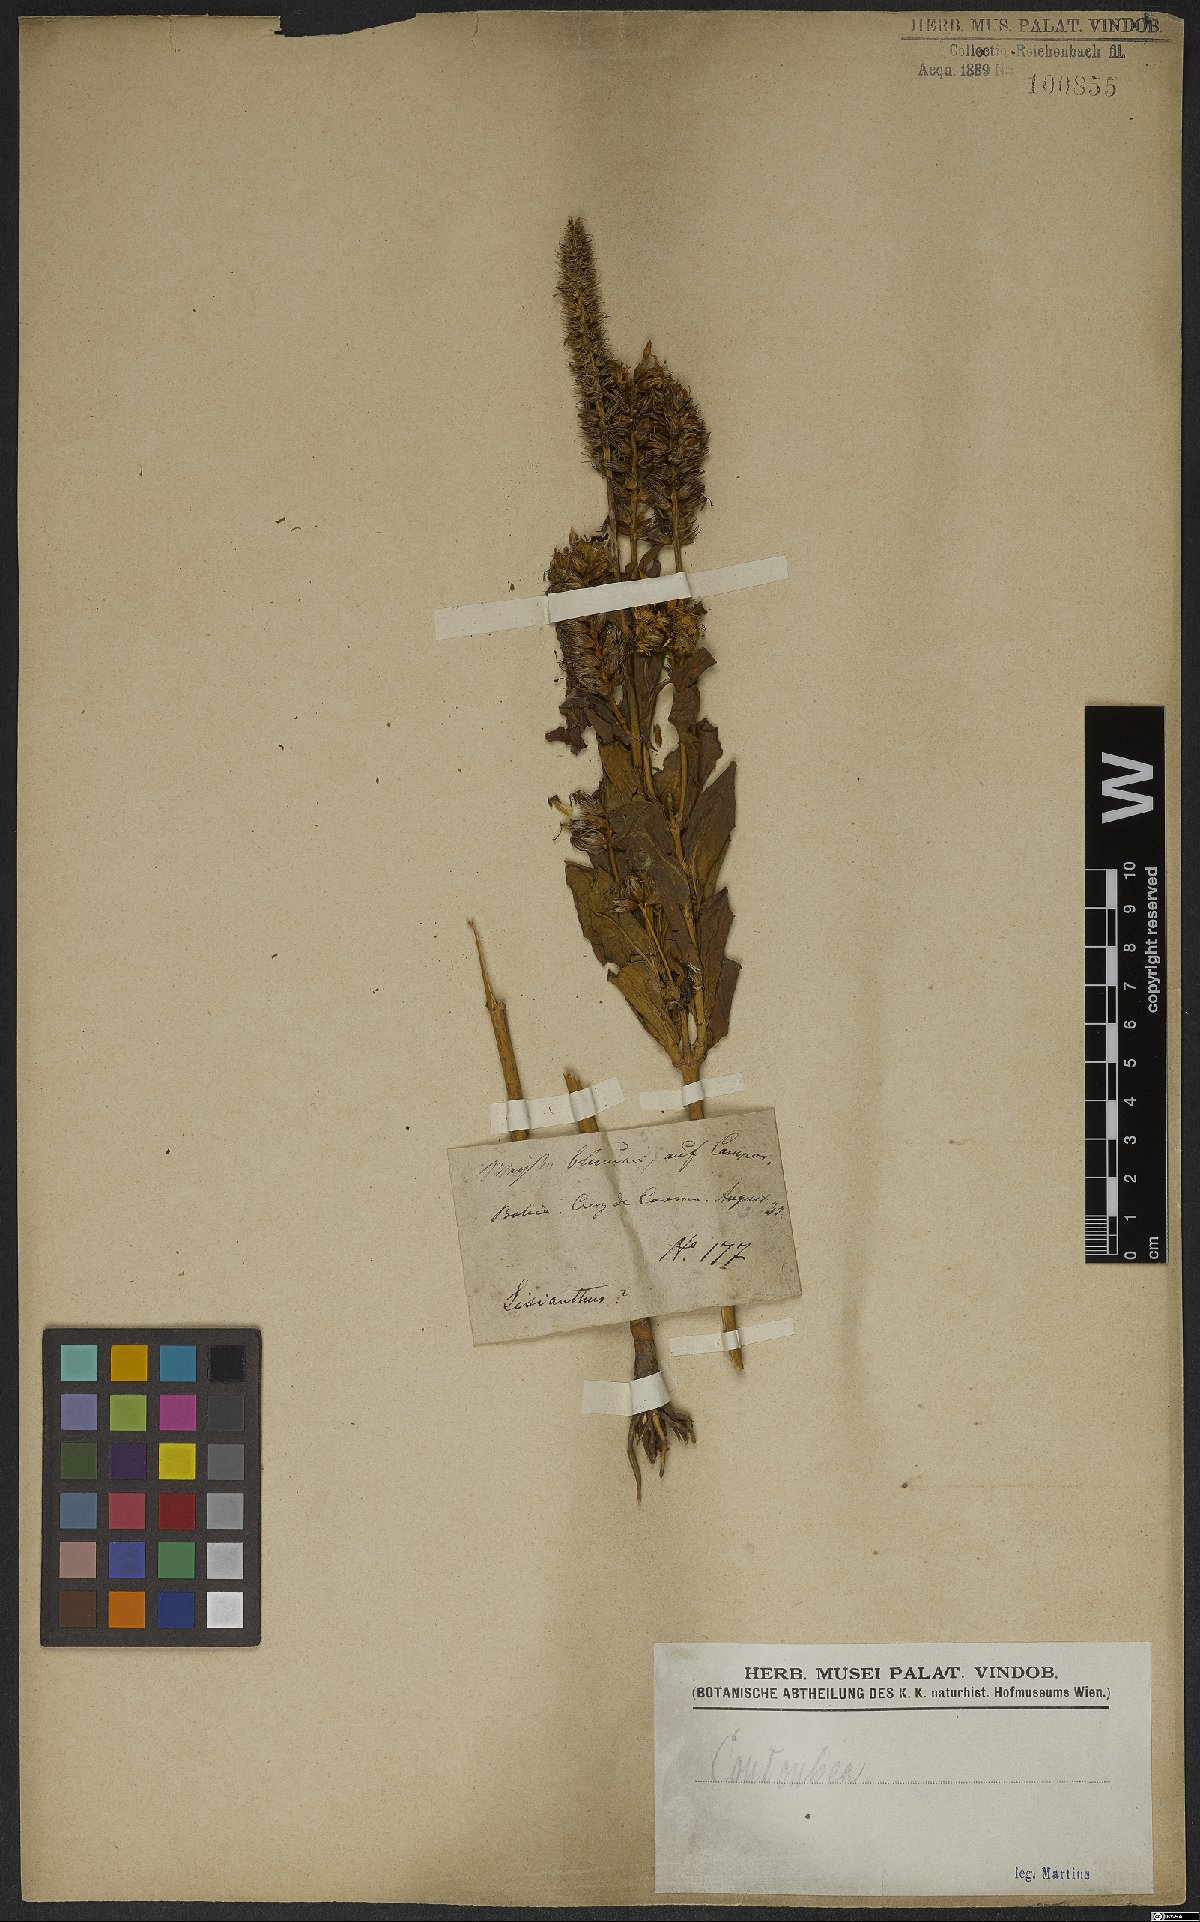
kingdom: Plantae
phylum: Tracheophyta
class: Magnoliopsida
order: Gentianales
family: Gentianaceae
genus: Coutoubea
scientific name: Coutoubea spicata
